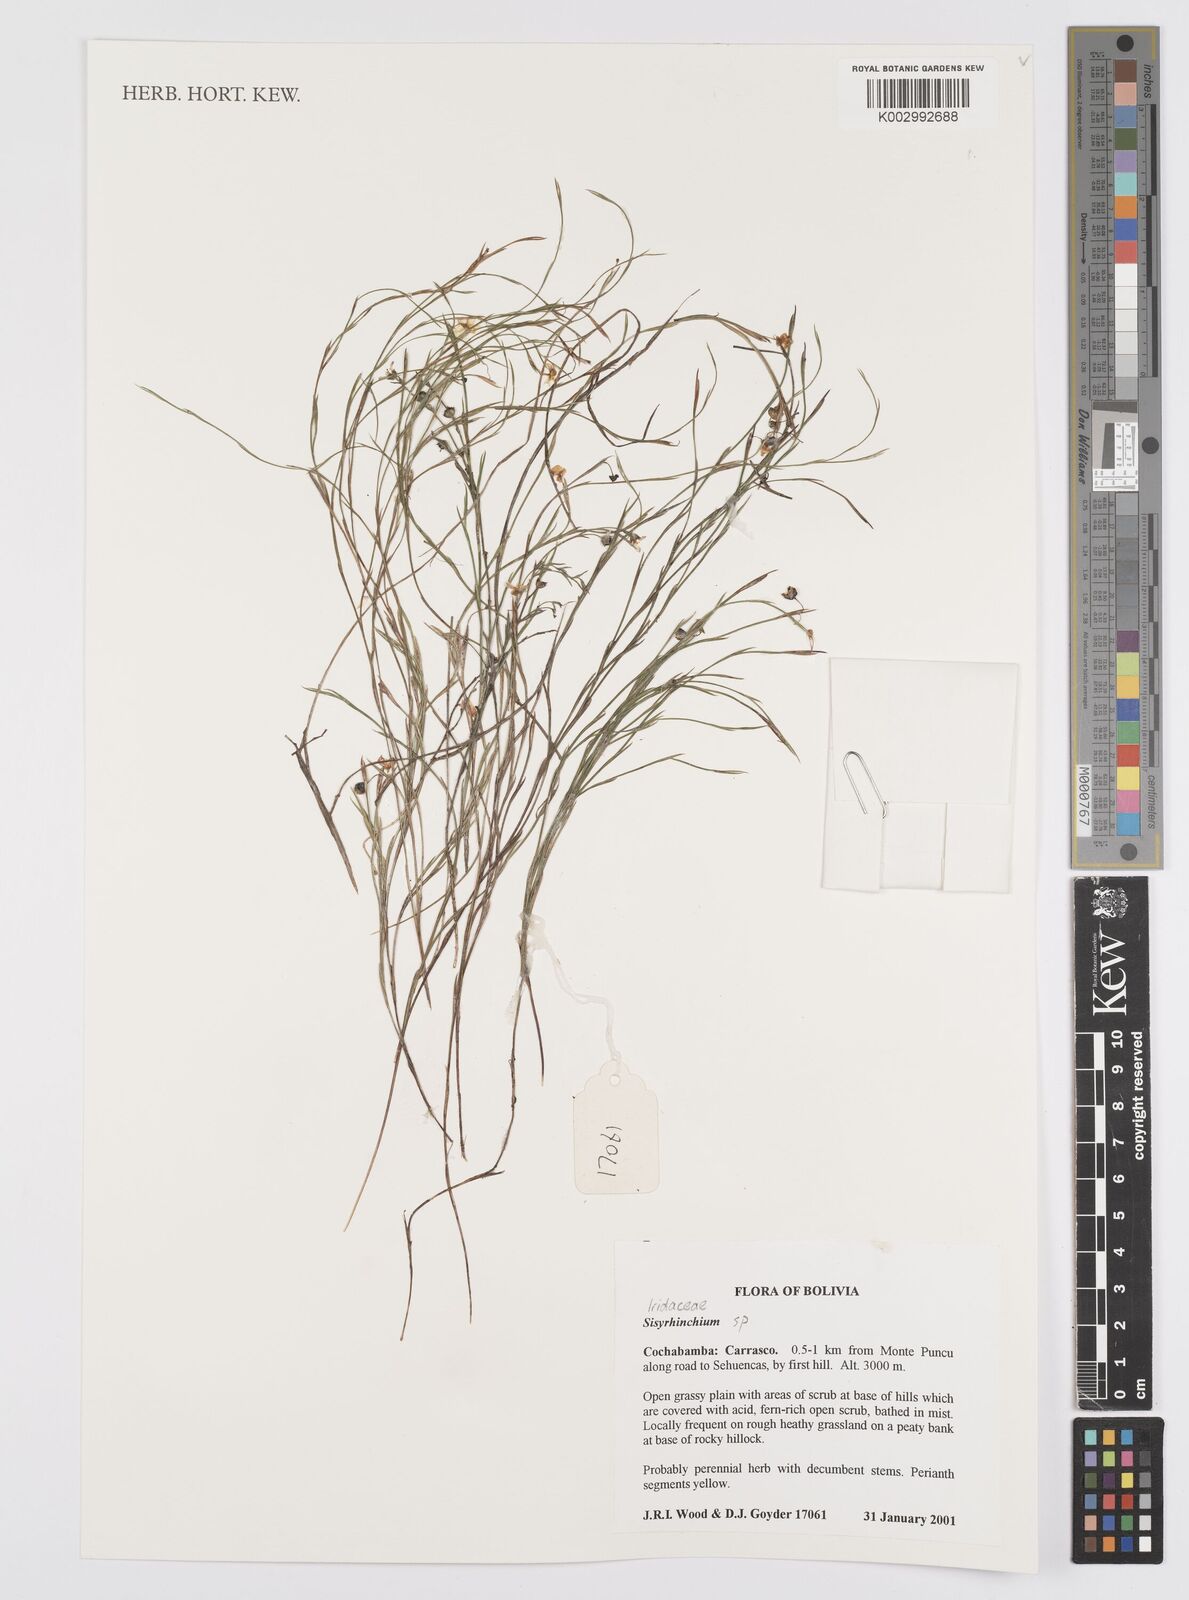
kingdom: Plantae
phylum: Tracheophyta
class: Liliopsida
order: Asparagales
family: Iridaceae
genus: Sisyrinchium
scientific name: Sisyrinchium
